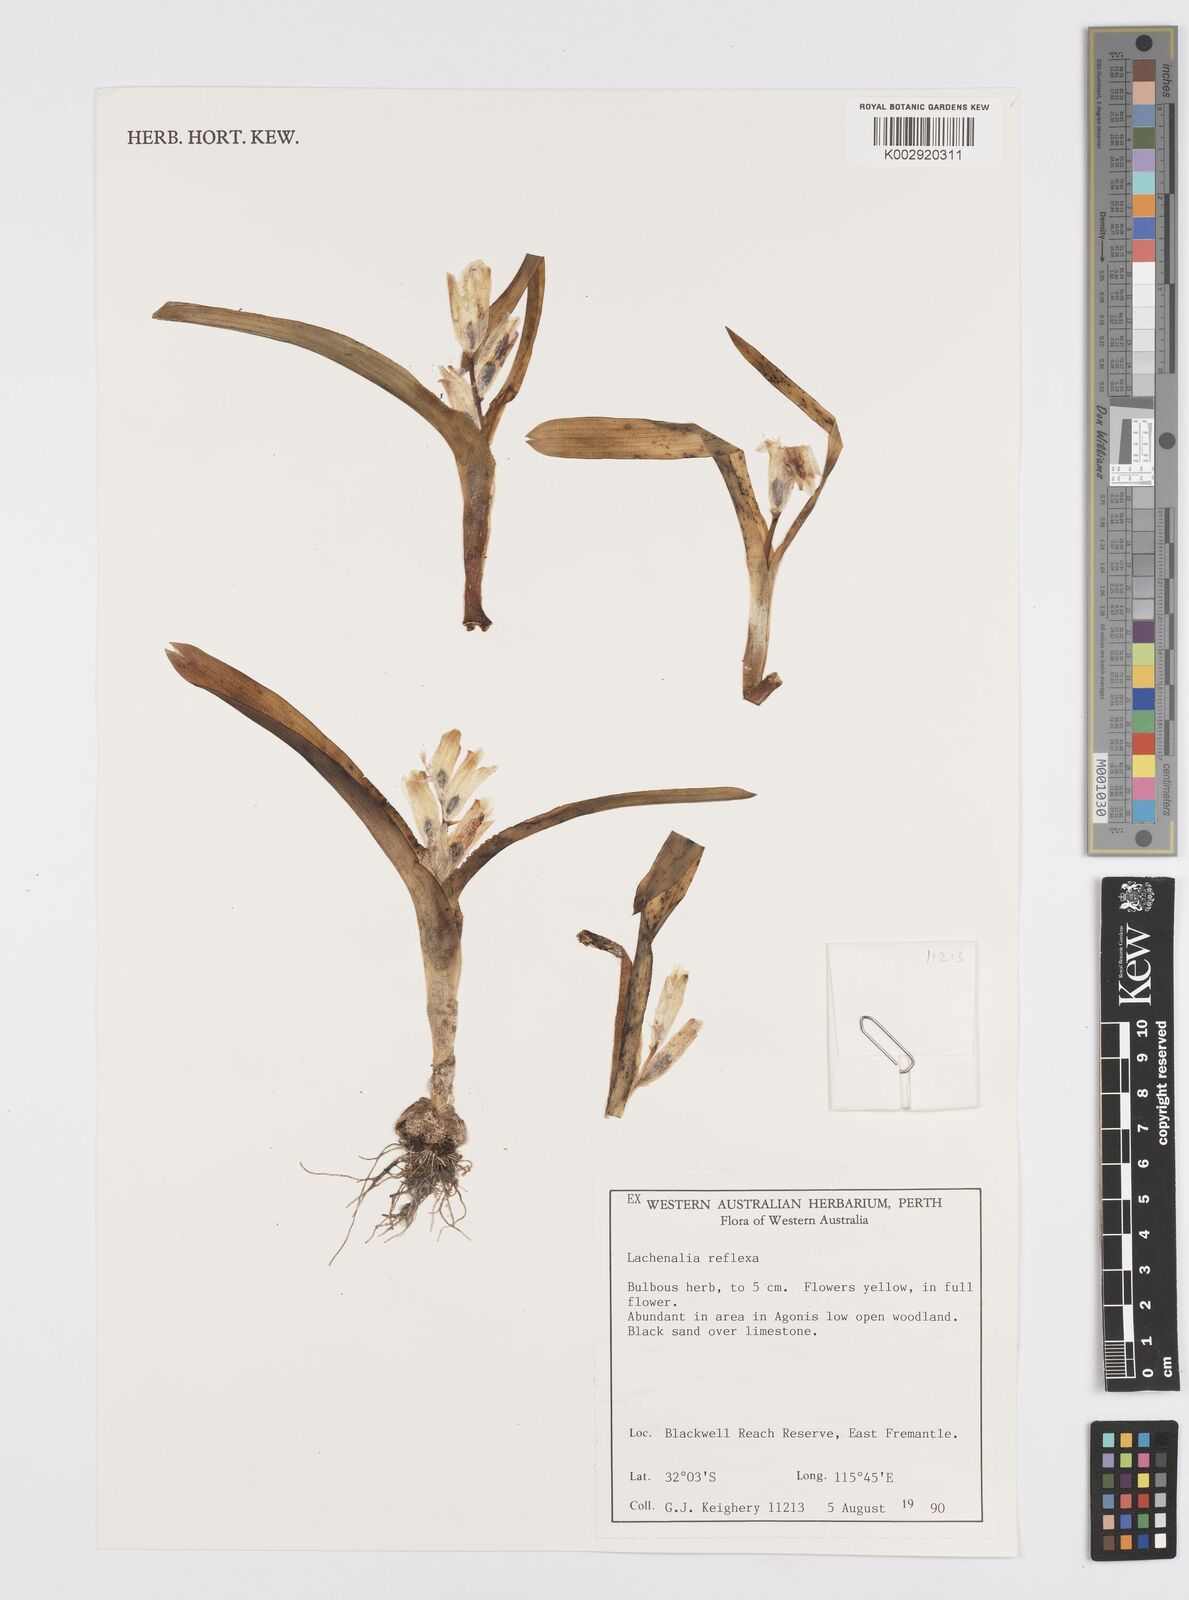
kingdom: Plantae
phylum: Tracheophyta
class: Liliopsida
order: Asparagales
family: Asparagaceae
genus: Lachenalia
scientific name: Lachenalia
